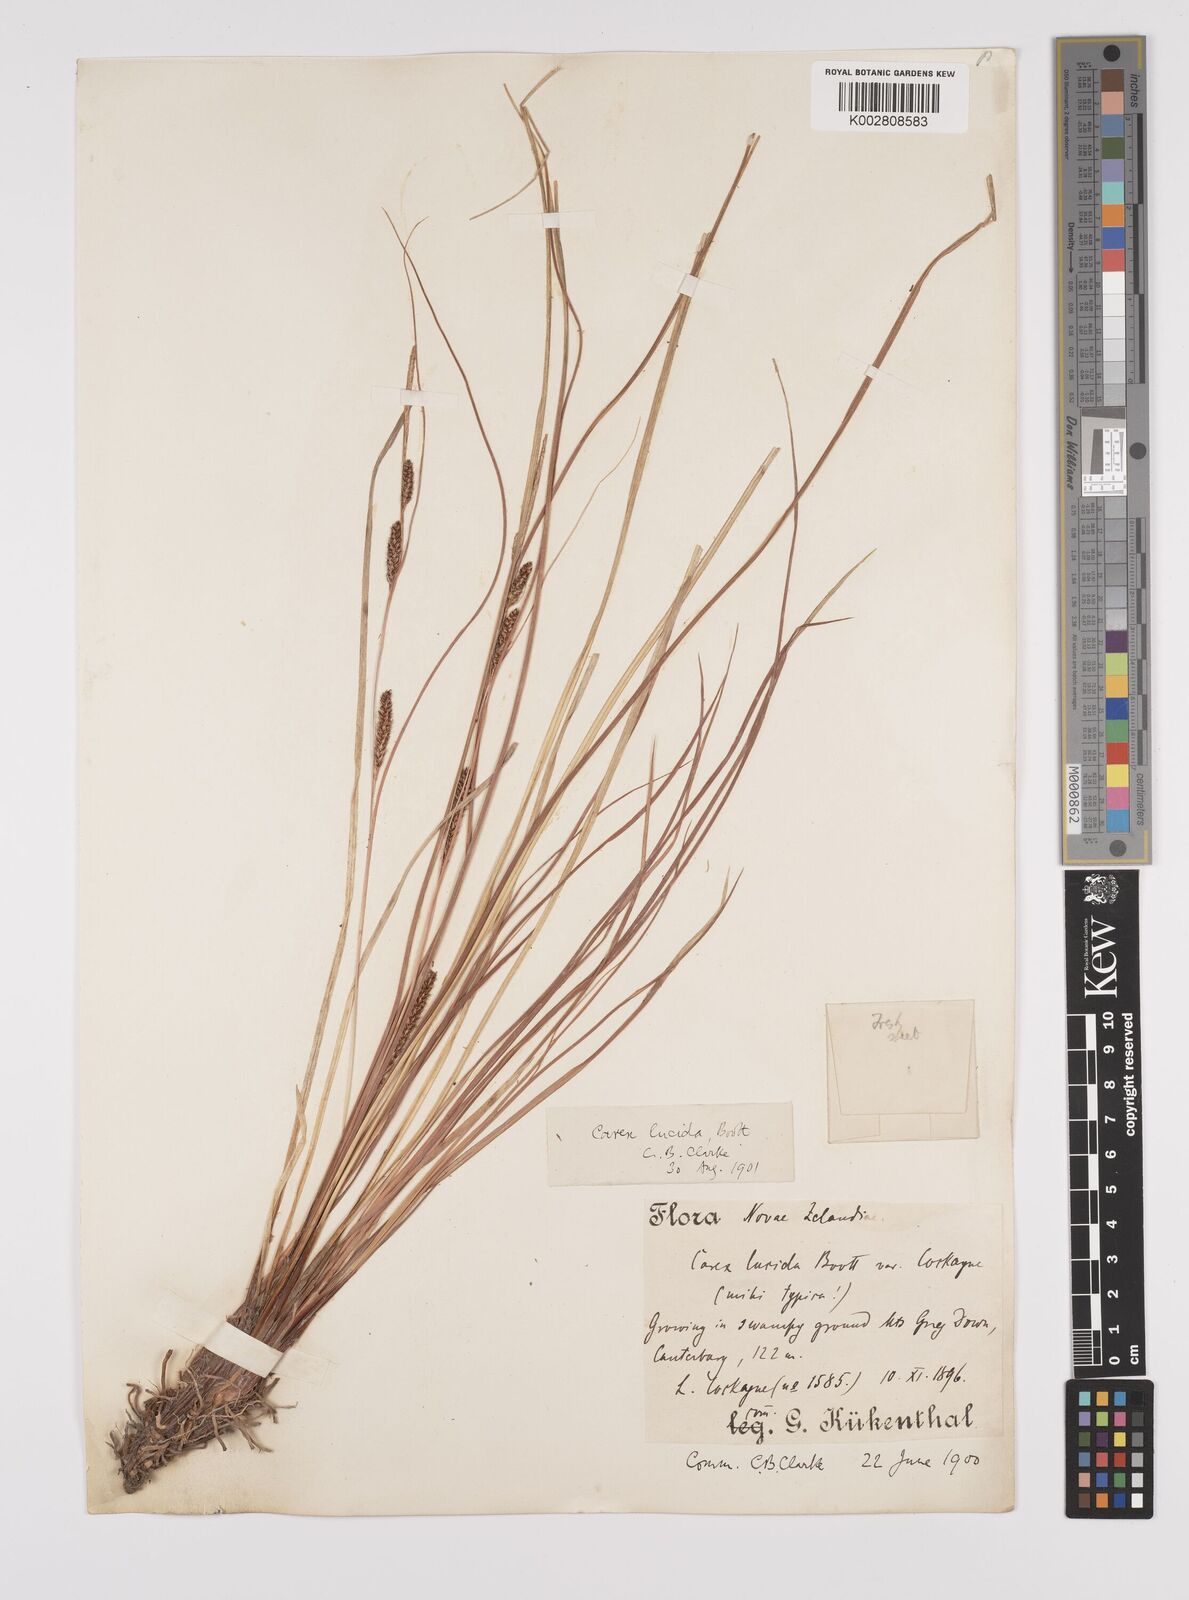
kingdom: Plantae
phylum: Tracheophyta
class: Liliopsida
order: Poales
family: Cyperaceae
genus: Carex
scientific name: Carex flagellifera
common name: Glen murray tussock
